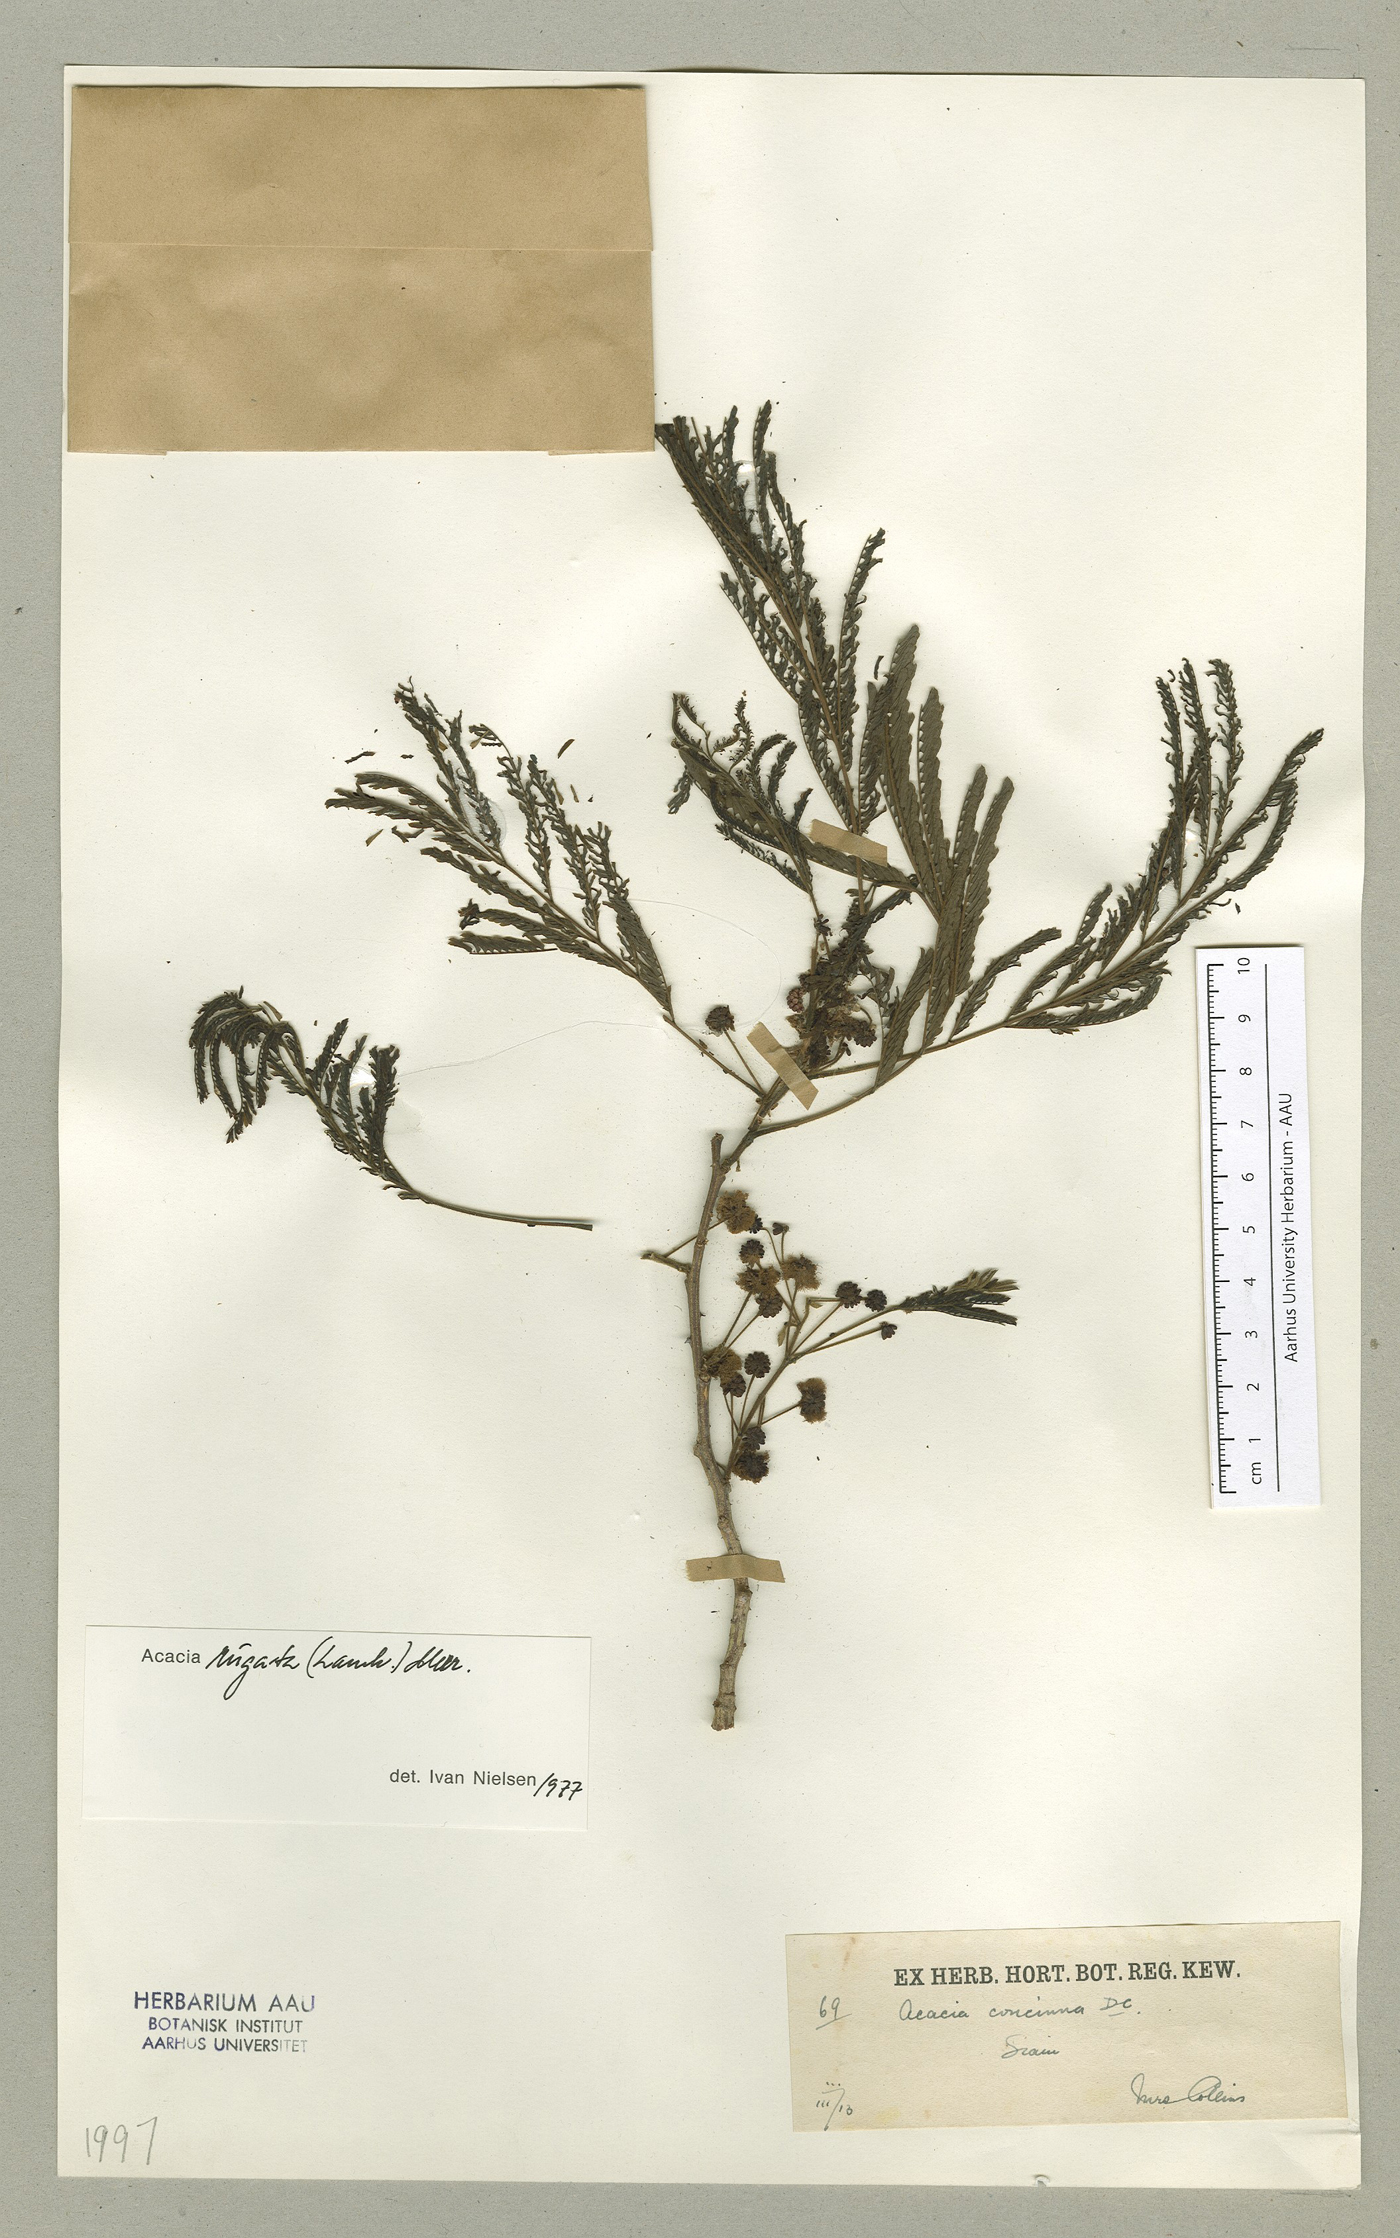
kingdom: Plantae
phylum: Tracheophyta
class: Magnoliopsida
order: Fabales
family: Fabaceae
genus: Senegalia
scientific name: Senegalia rugata
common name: Soap-pod
